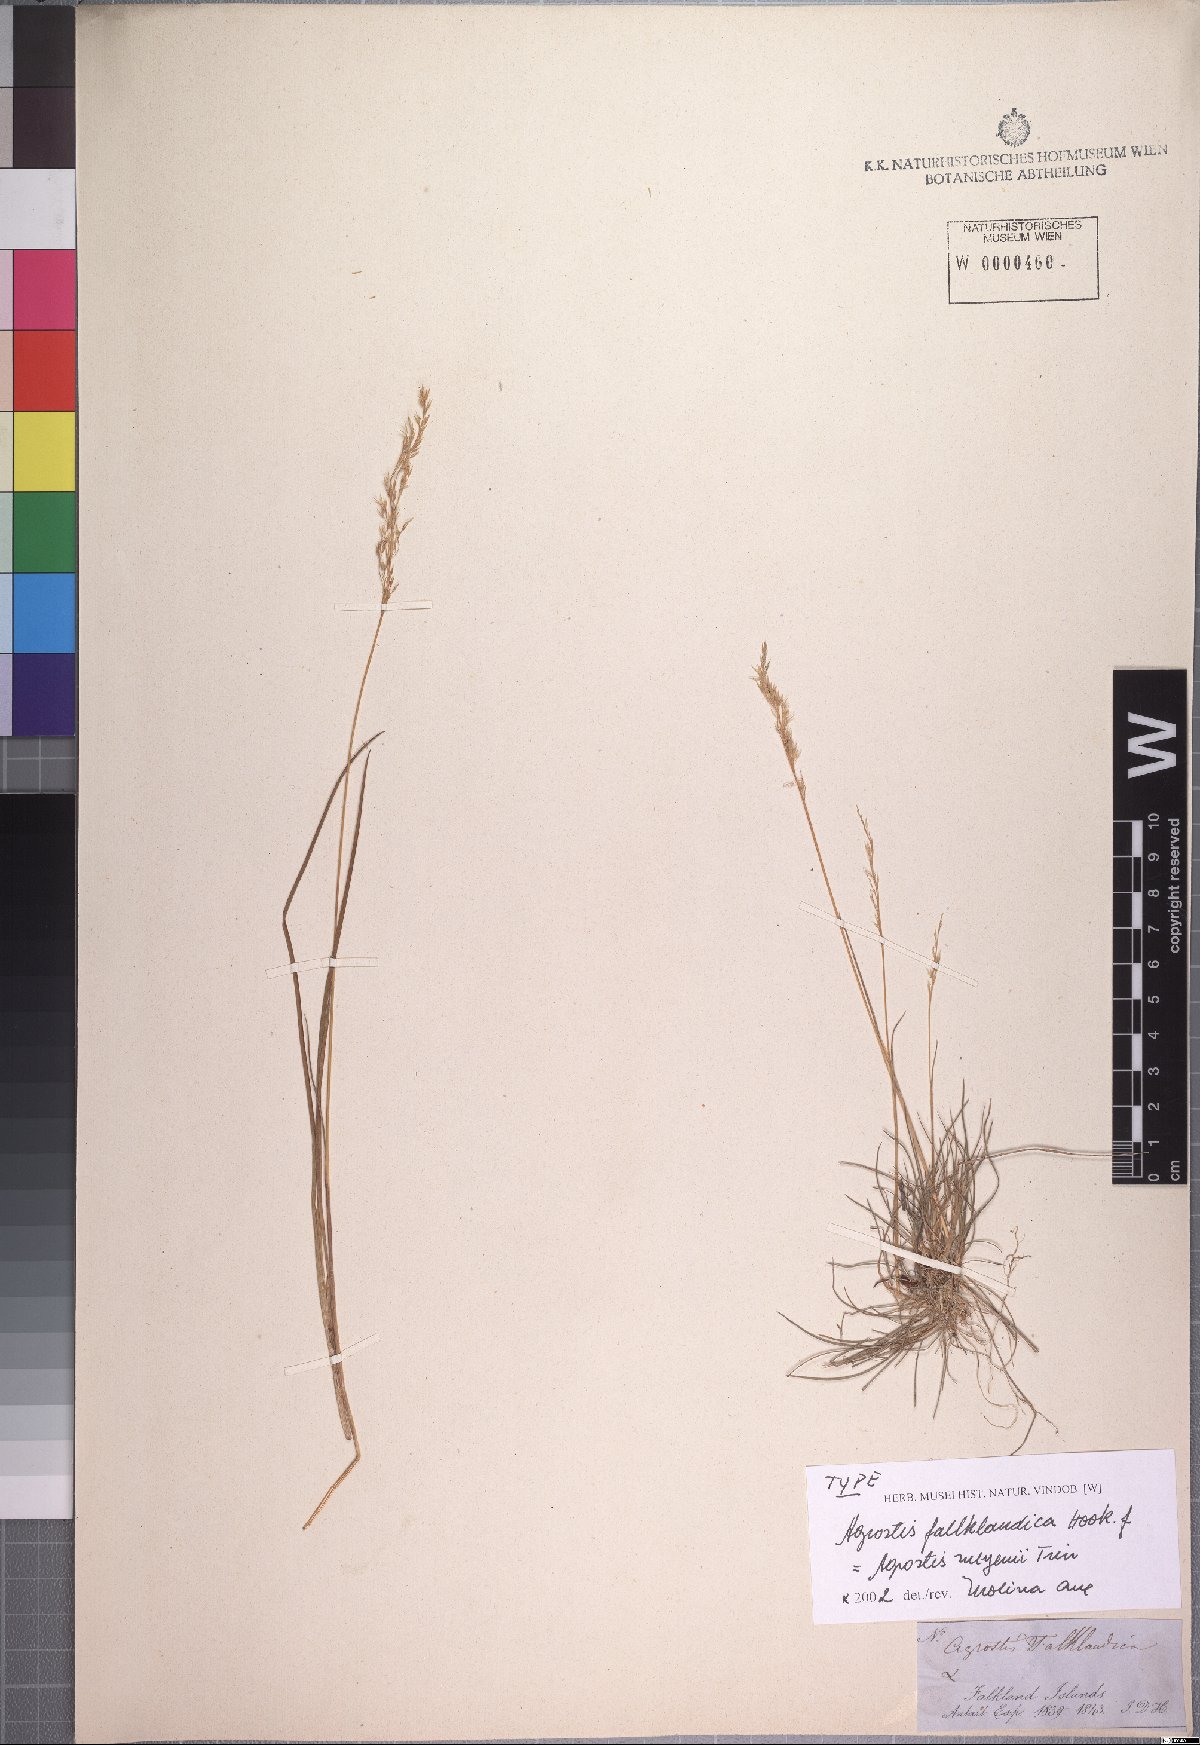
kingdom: Plantae
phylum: Tracheophyta
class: Liliopsida
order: Poales
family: Poaceae
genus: Agrostis
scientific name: Agrostis meyenii
